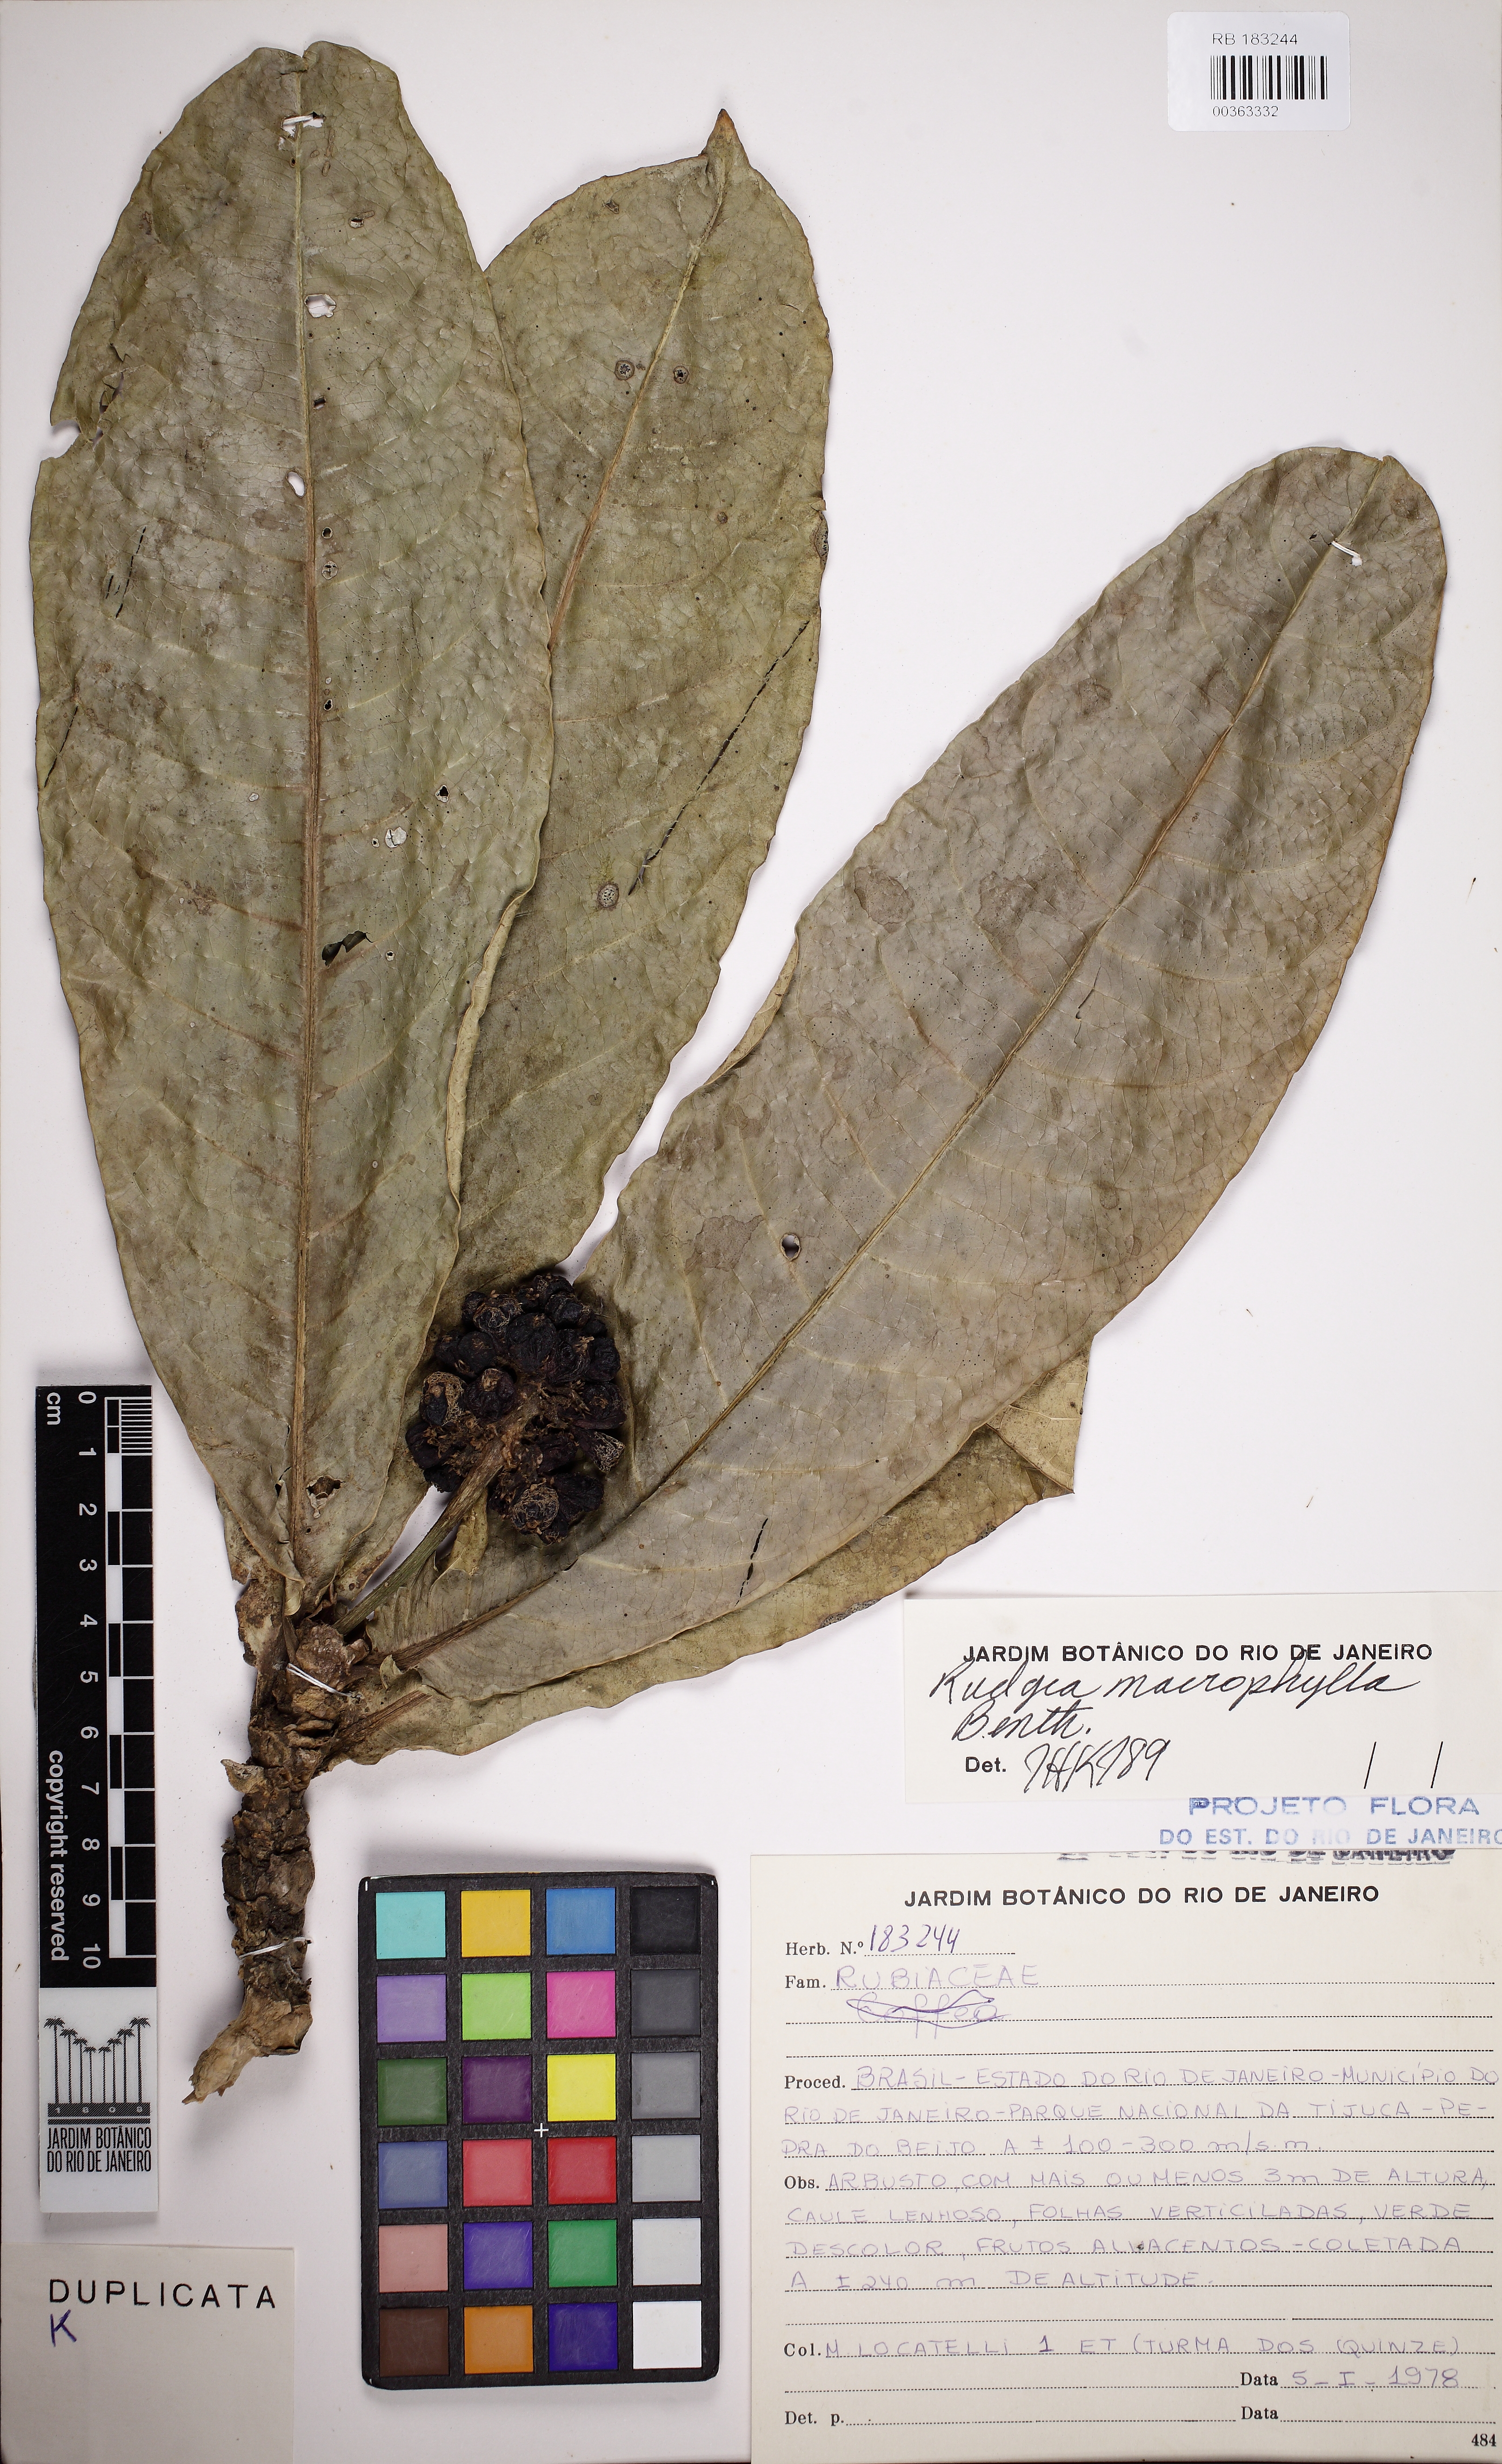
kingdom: Plantae
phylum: Tracheophyta
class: Magnoliopsida
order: Gentianales
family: Rubiaceae
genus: Rudgea
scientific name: Rudgea macrophylla
